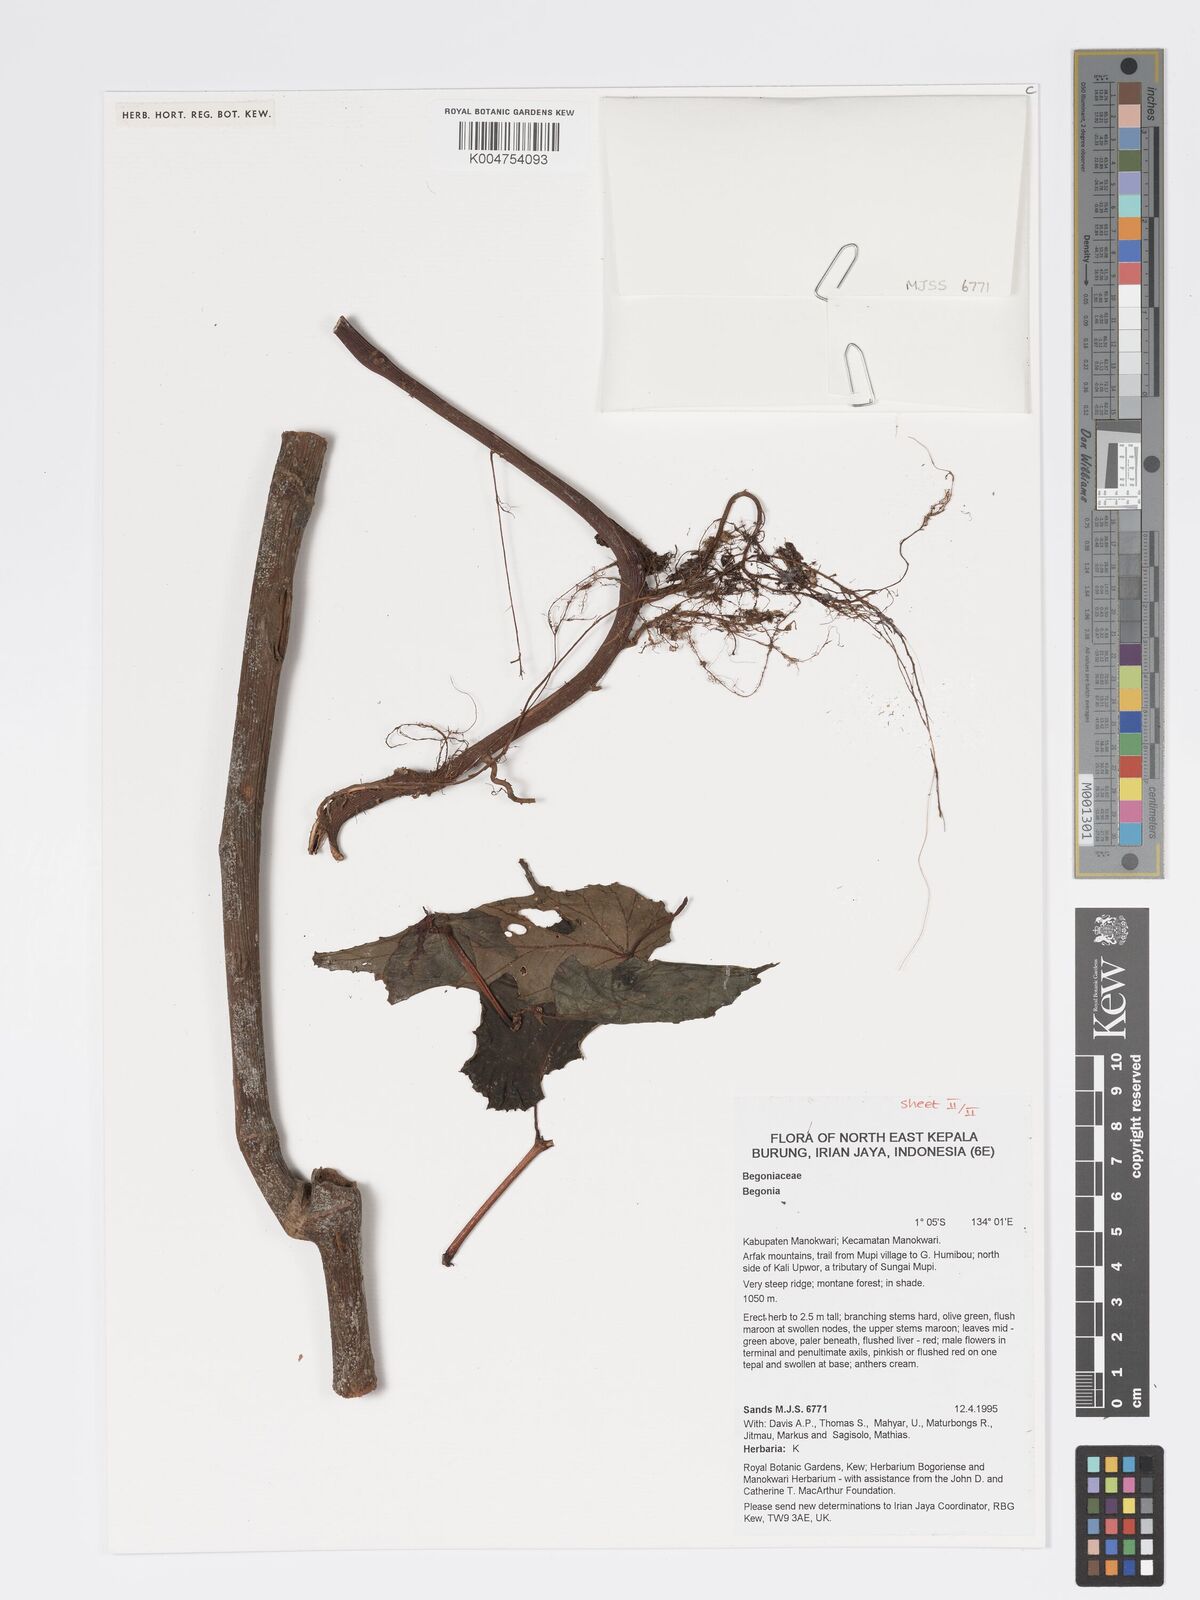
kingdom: Plantae
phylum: Tracheophyta
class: Magnoliopsida
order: Cucurbitales
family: Begoniaceae
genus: Begonia
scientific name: Begonia
